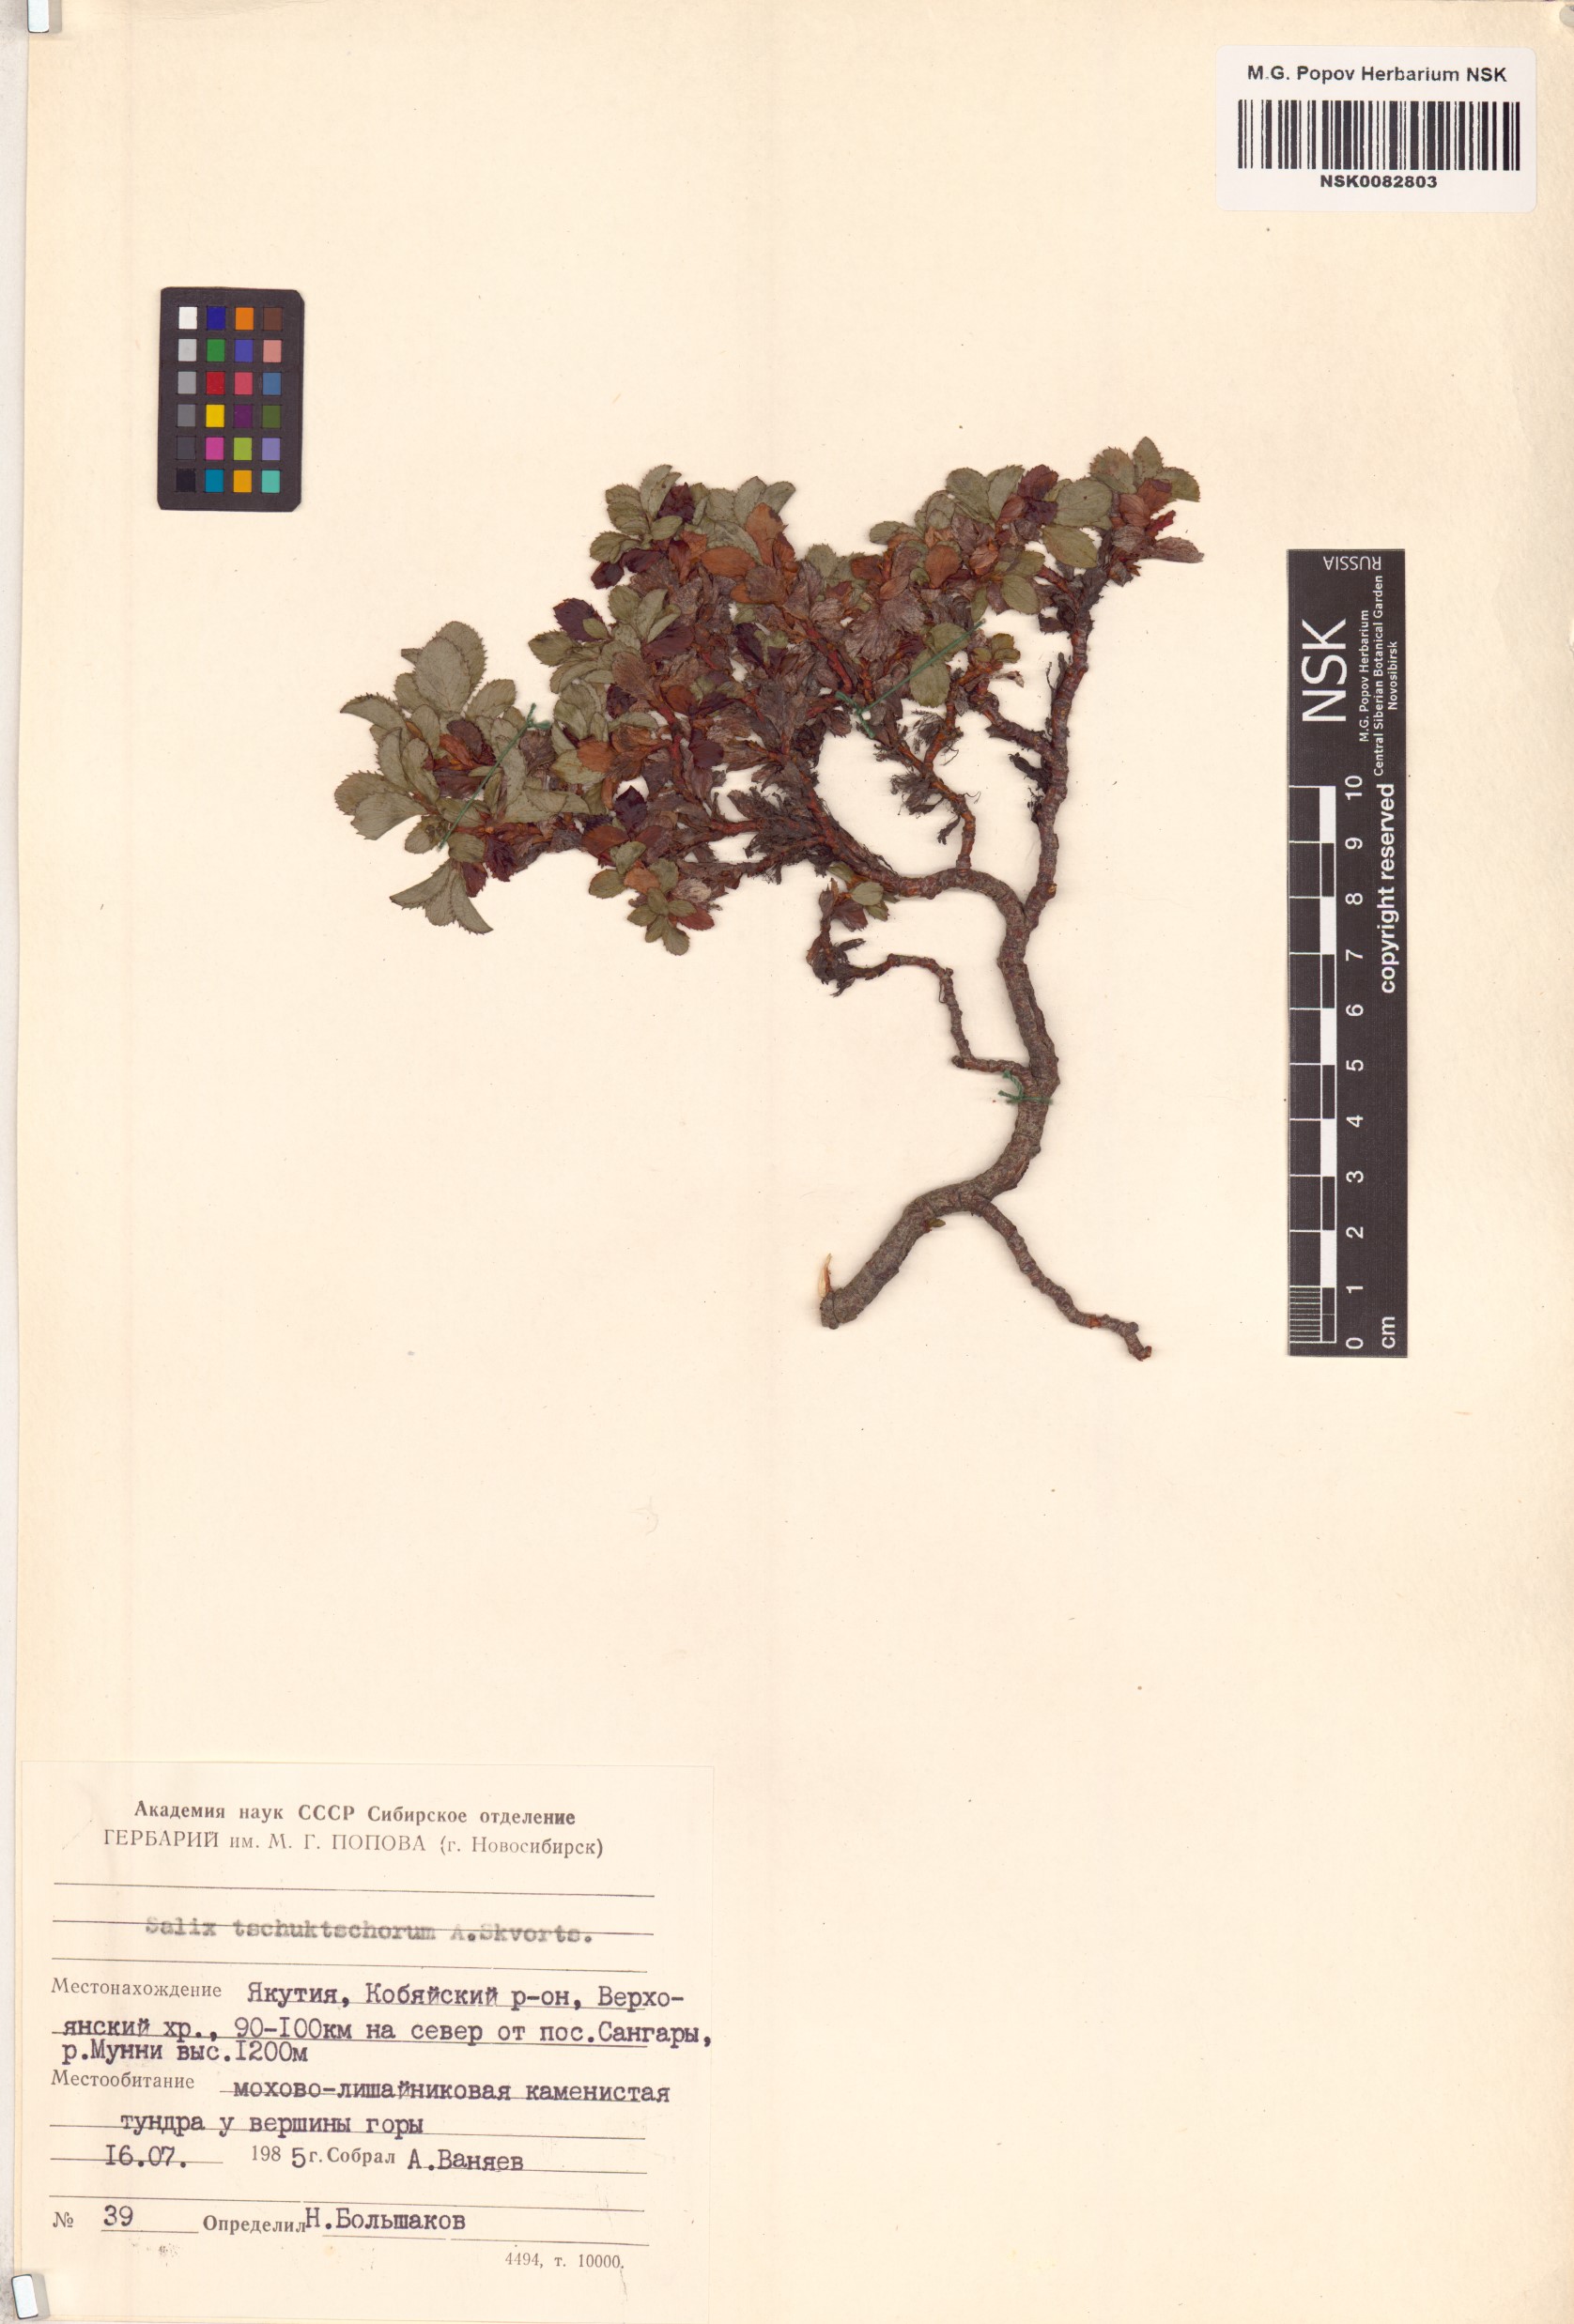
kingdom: Plantae
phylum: Tracheophyta
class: Magnoliopsida
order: Malpighiales
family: Salicaceae
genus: Salix
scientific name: Salix tschuktschorum
